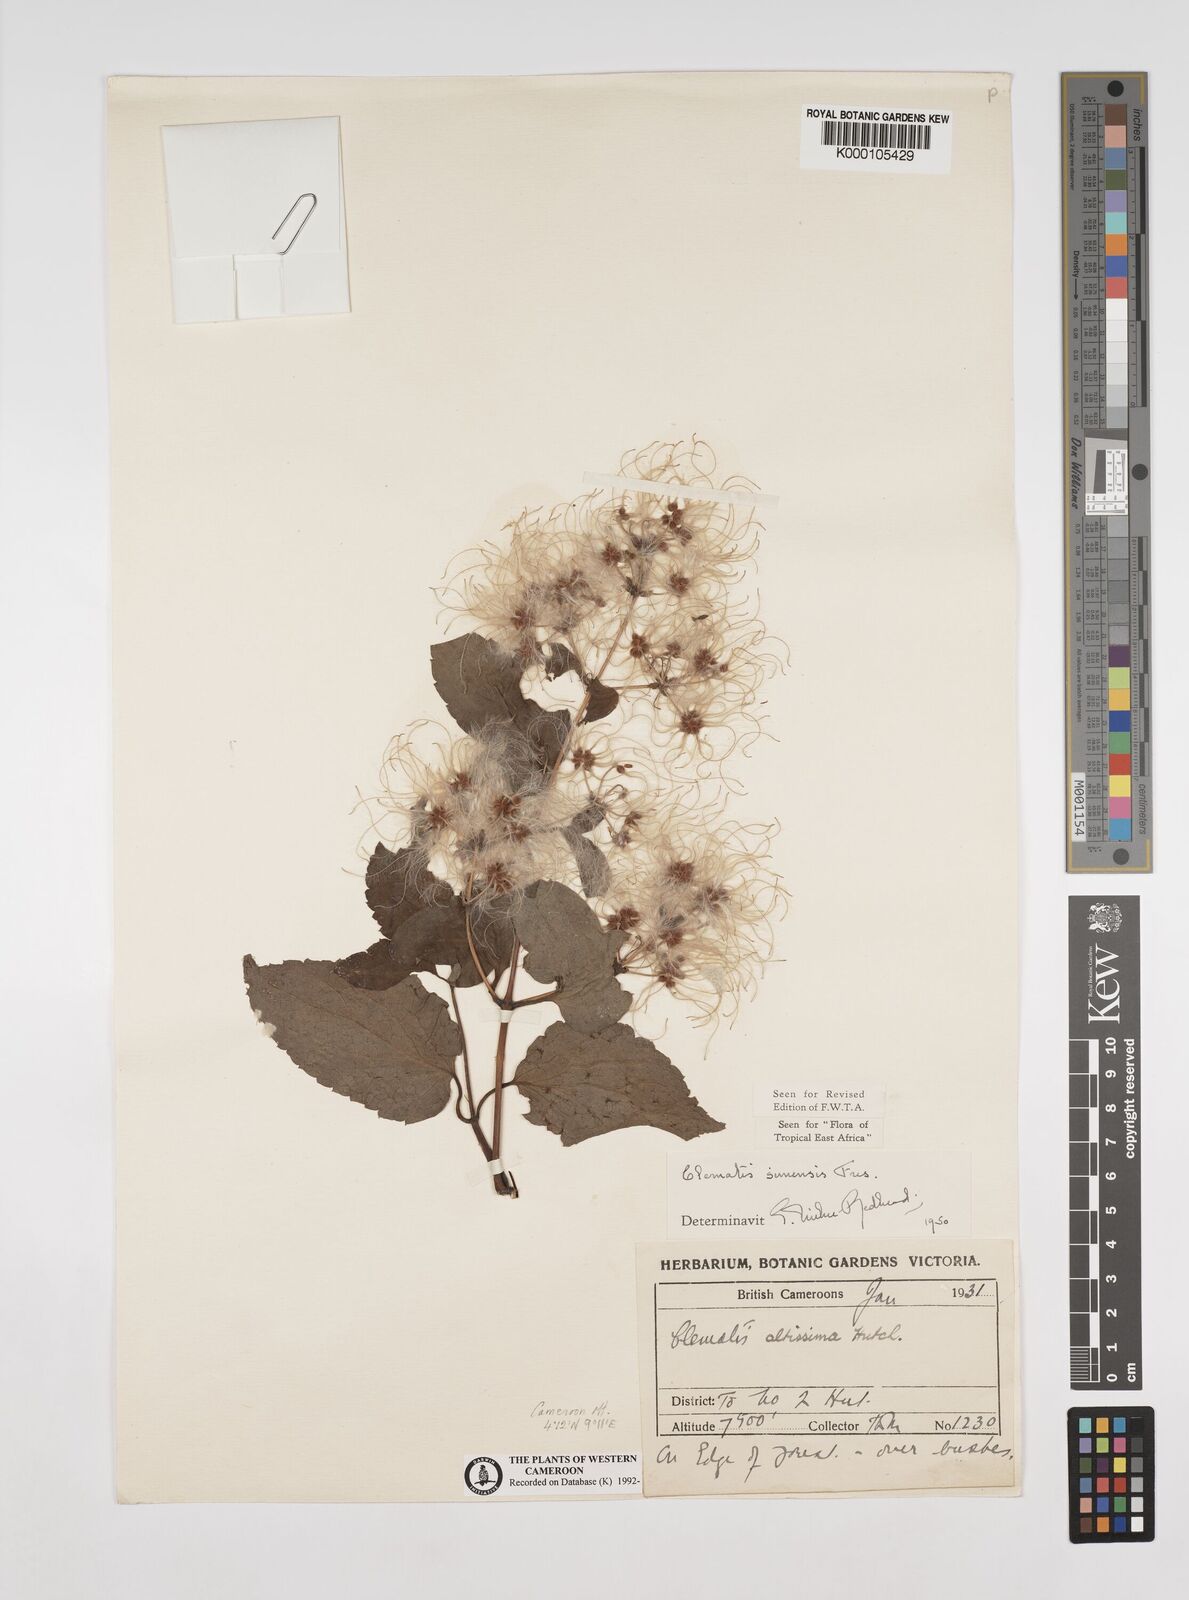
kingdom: Plantae
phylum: Tracheophyta
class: Magnoliopsida
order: Ranunculales
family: Ranunculaceae
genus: Clematis
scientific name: Clematis simensis
